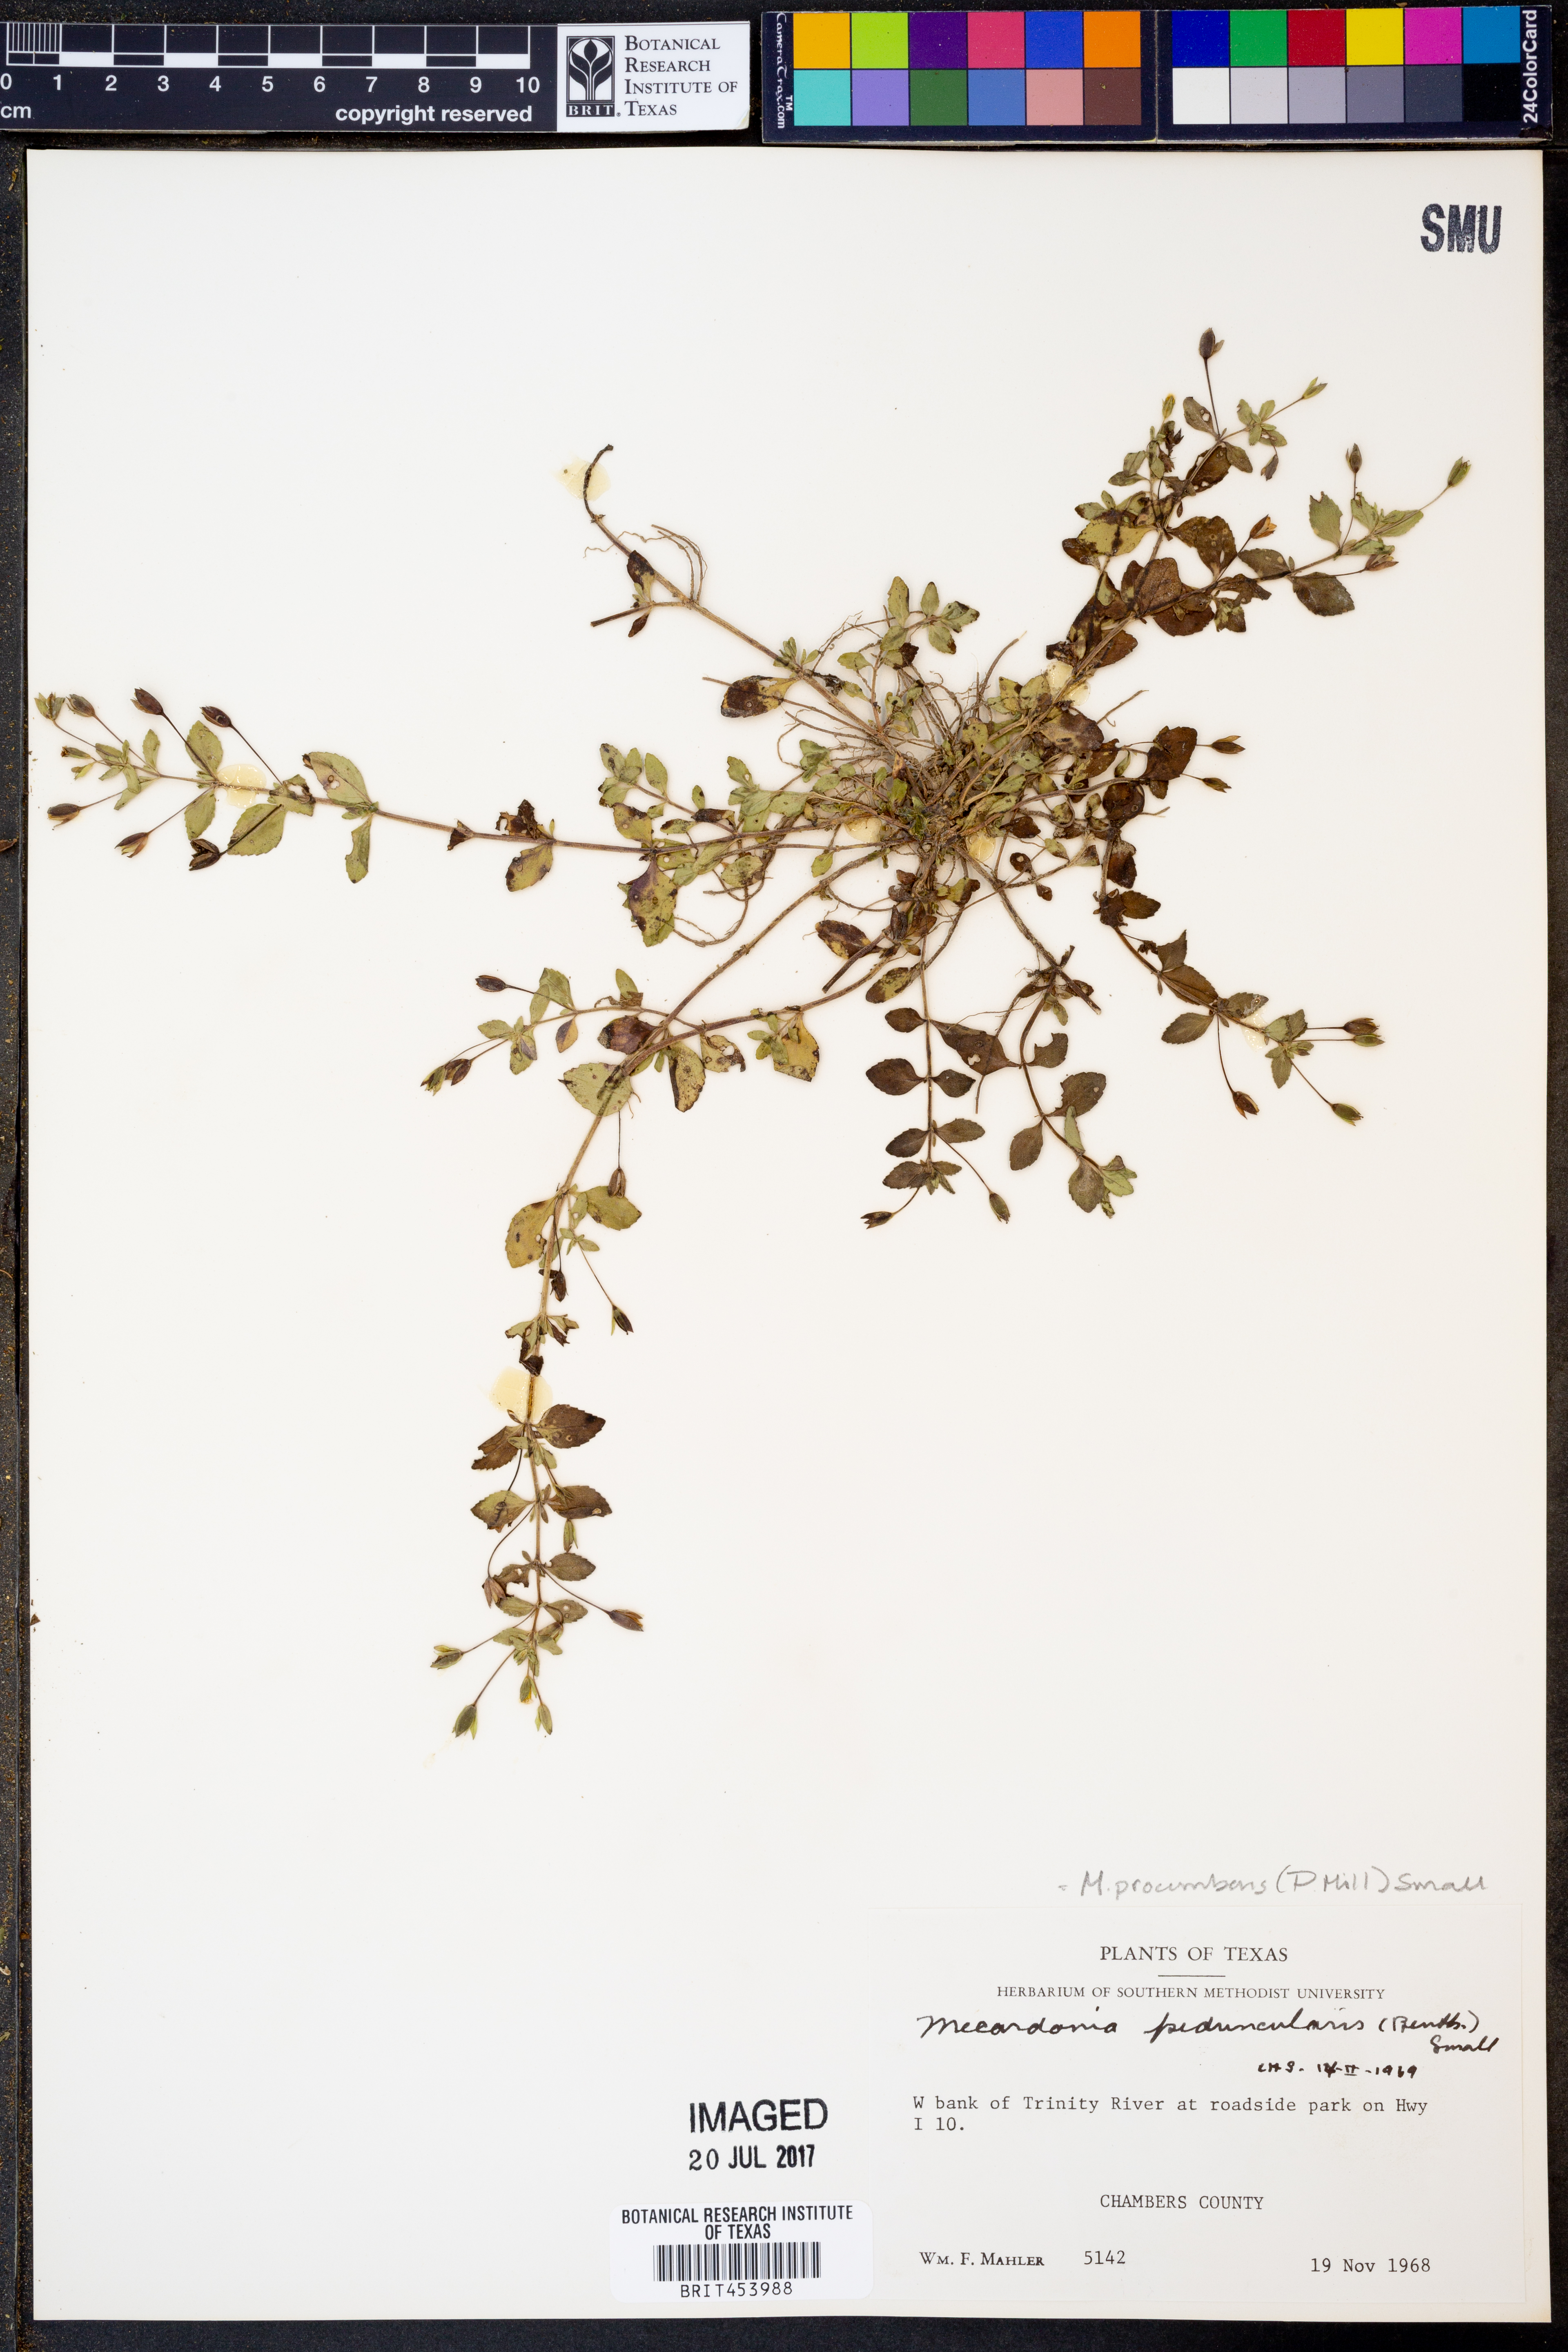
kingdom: Plantae
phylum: Tracheophyta
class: Magnoliopsida
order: Lamiales
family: Plantaginaceae
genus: Mecardonia
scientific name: Mecardonia procumbens
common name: Baby jump-up
